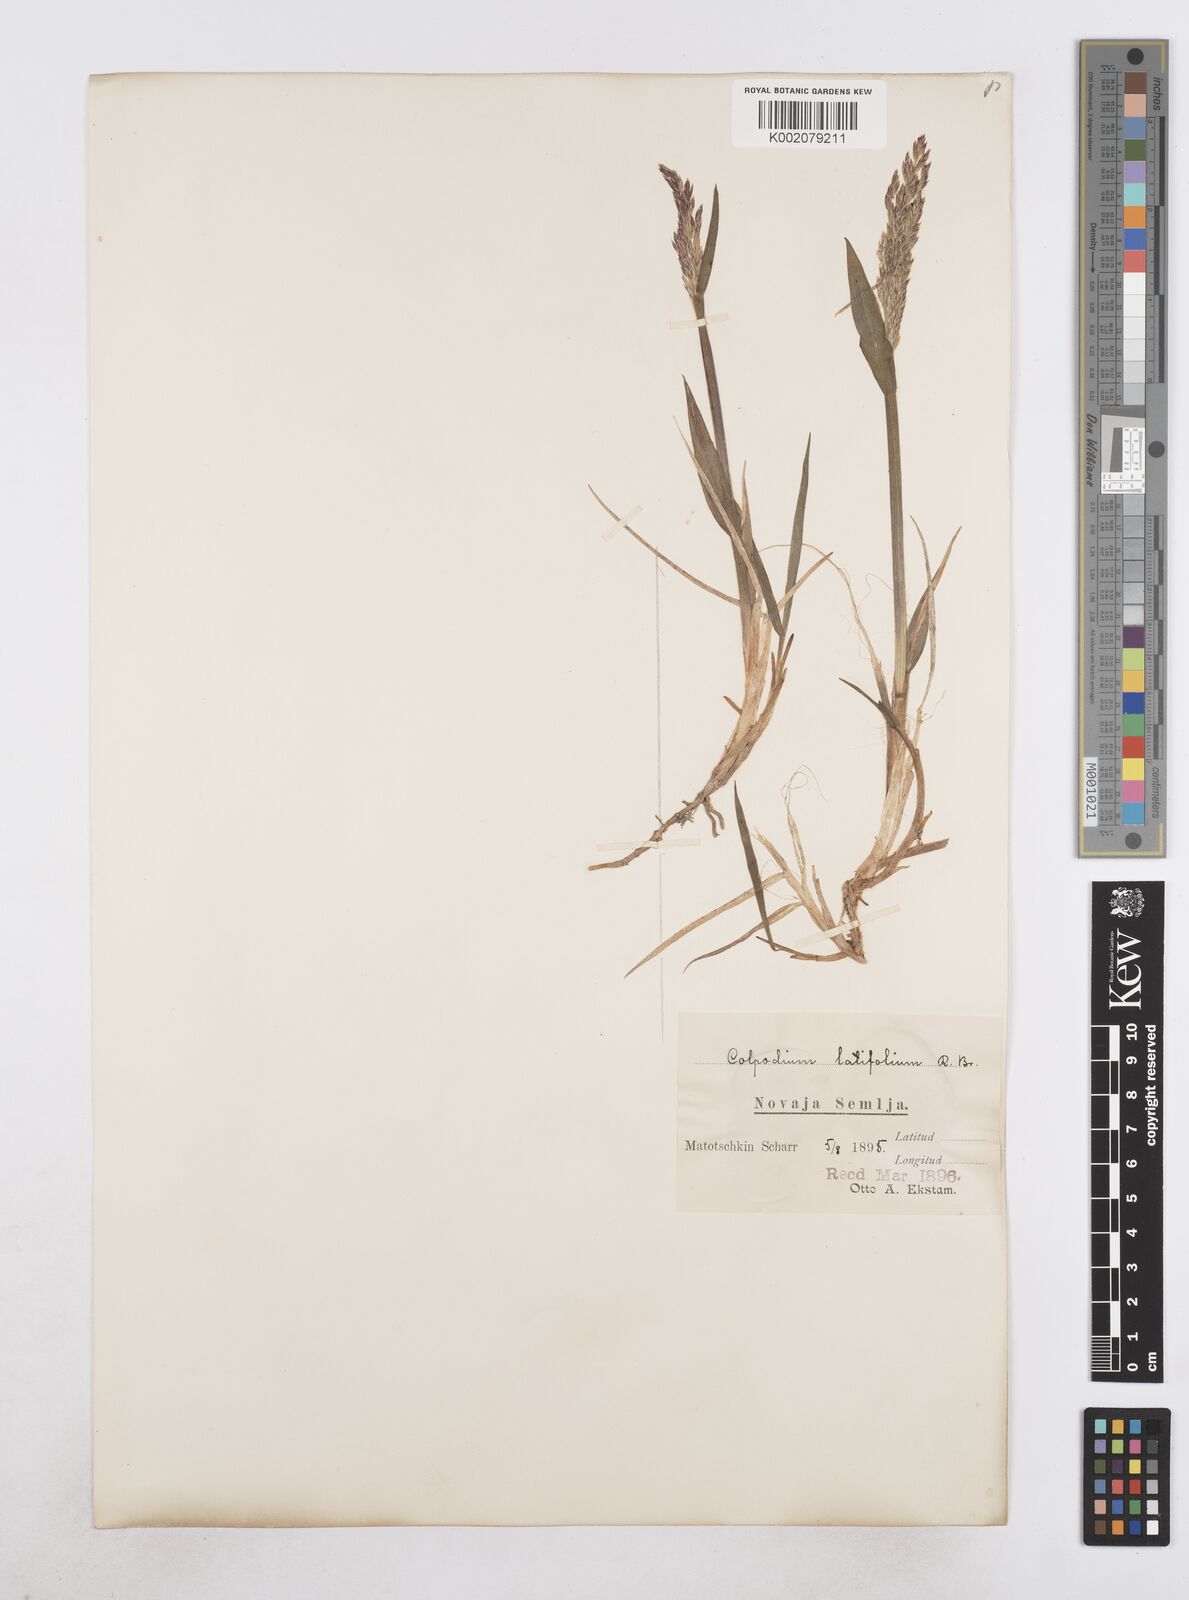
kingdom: Plantae
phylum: Tracheophyta
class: Liliopsida
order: Poales
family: Poaceae
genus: Arctagrostis
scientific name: Arctagrostis latifolia
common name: Arctic grass
